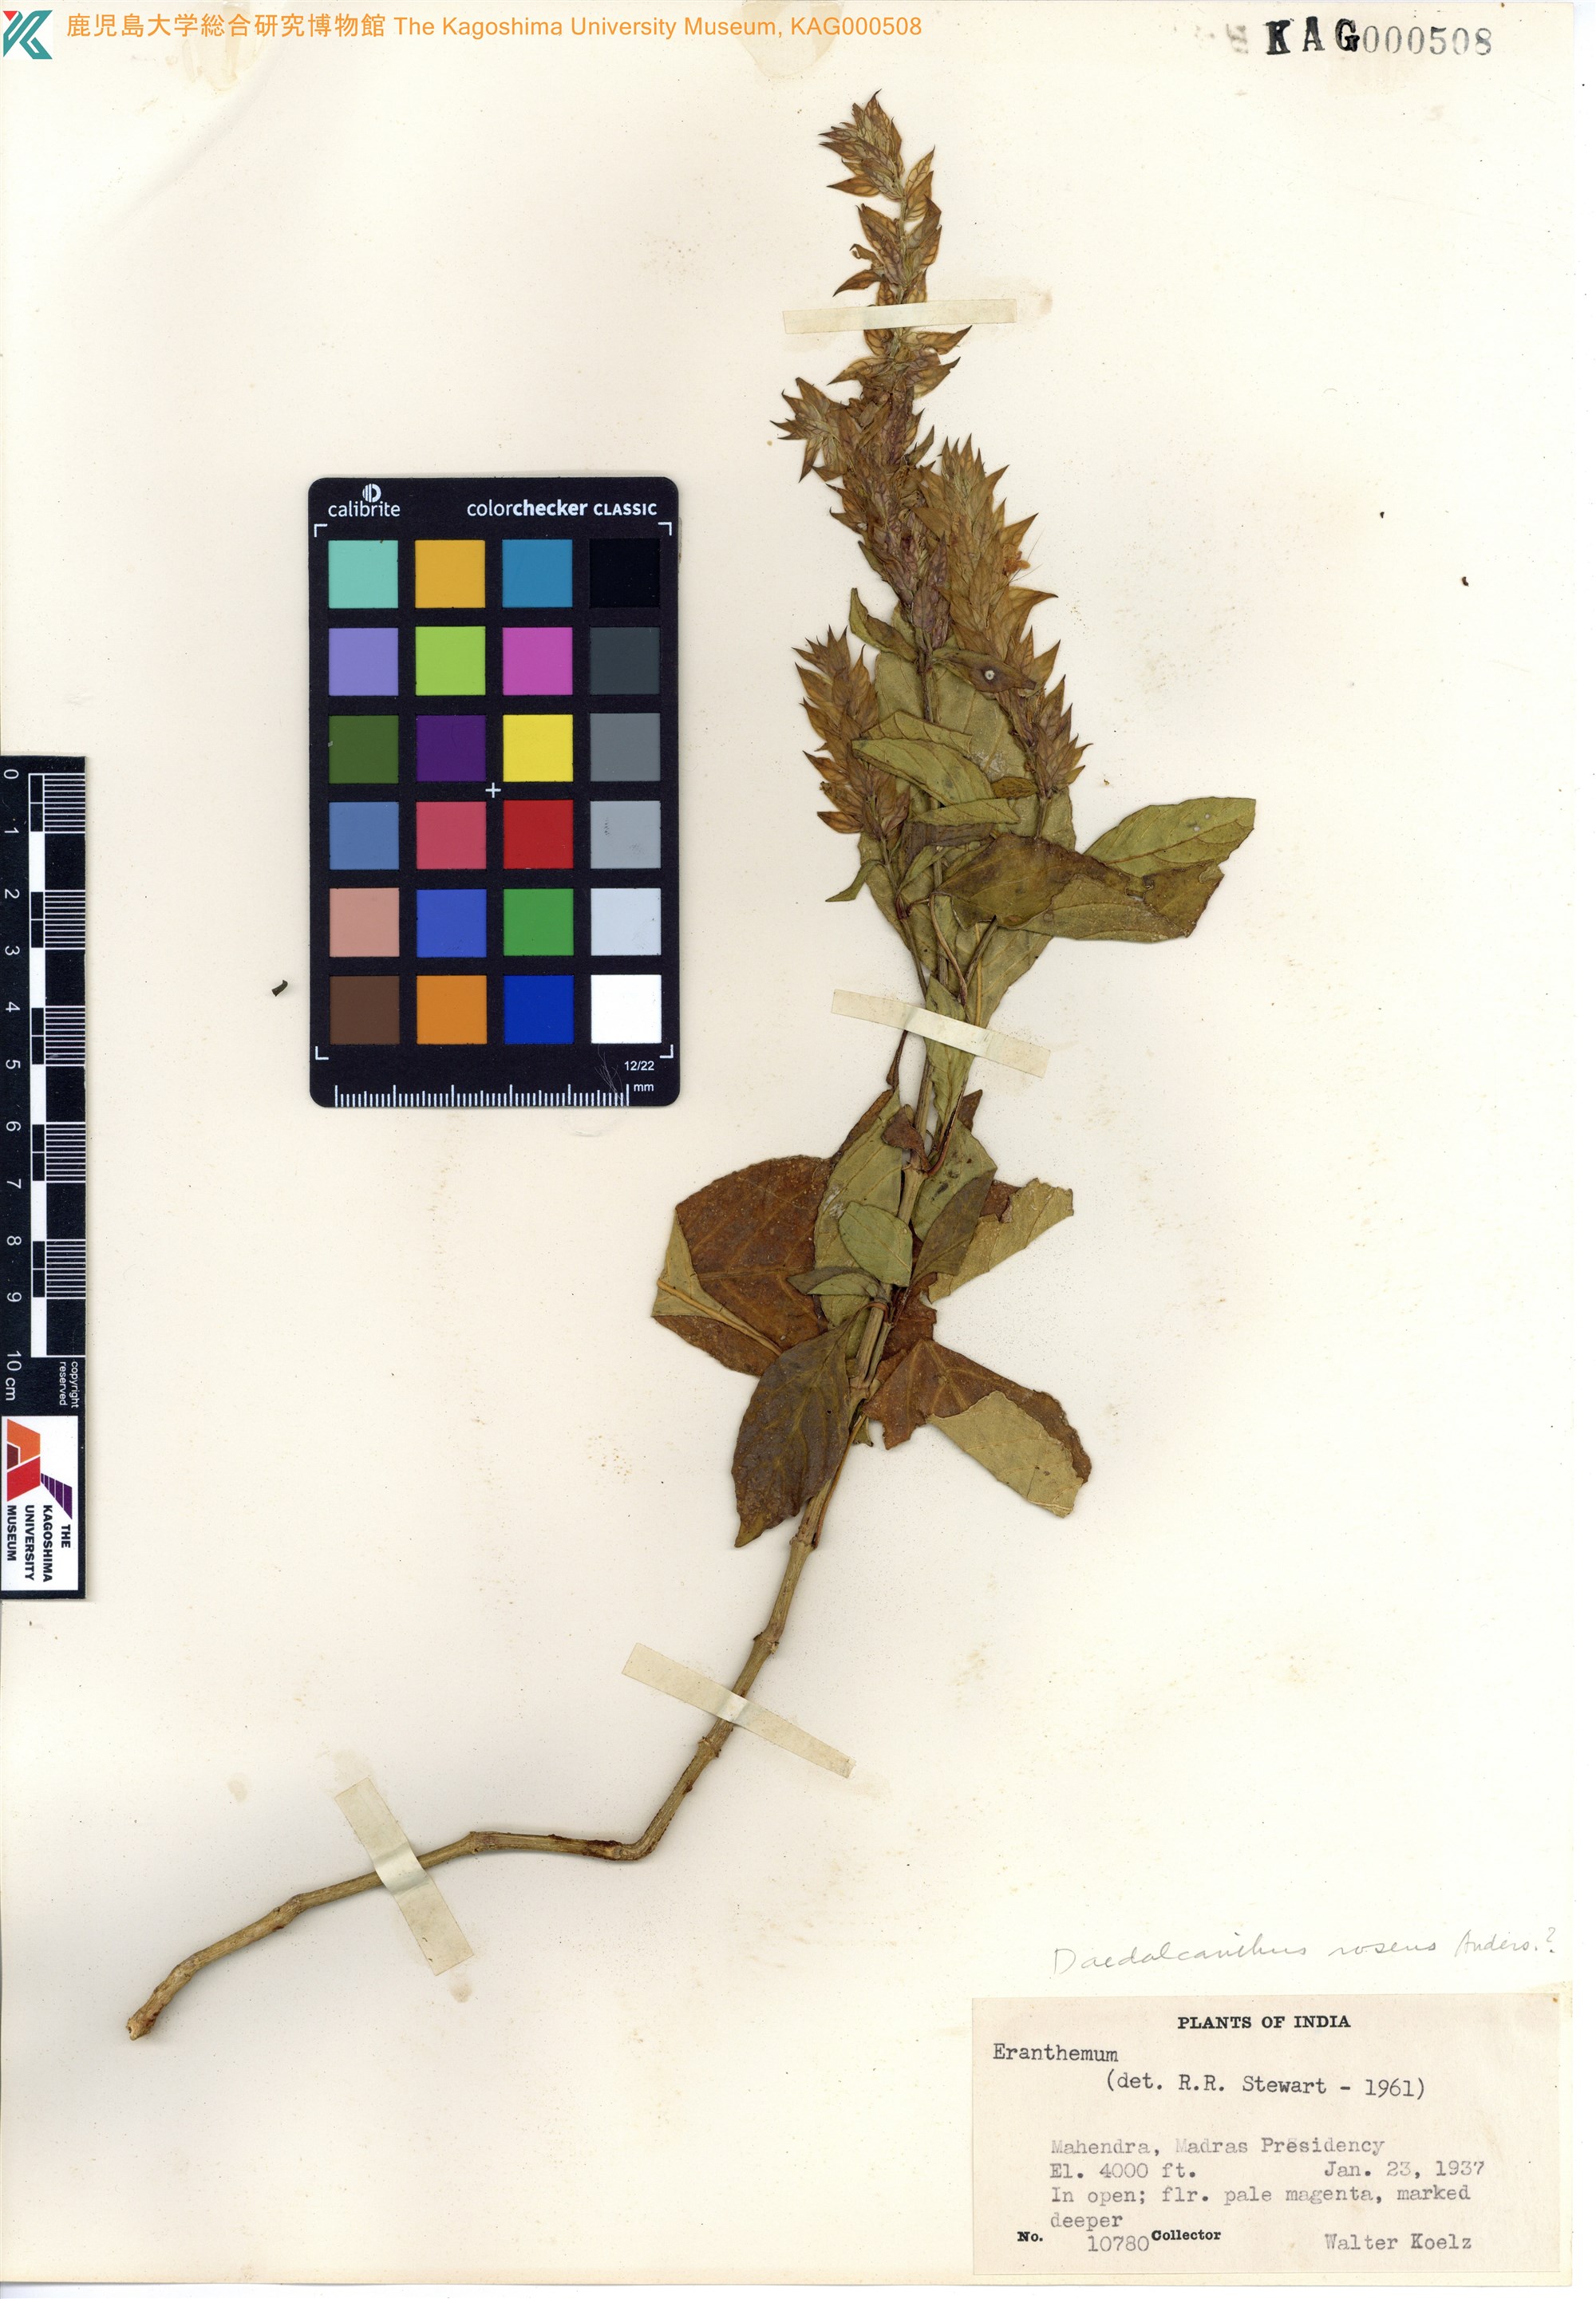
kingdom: Plantae
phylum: Tracheophyta
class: Magnoliopsida
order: Lamiales
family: Acanthaceae
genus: Eranthemum
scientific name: Eranthemum
